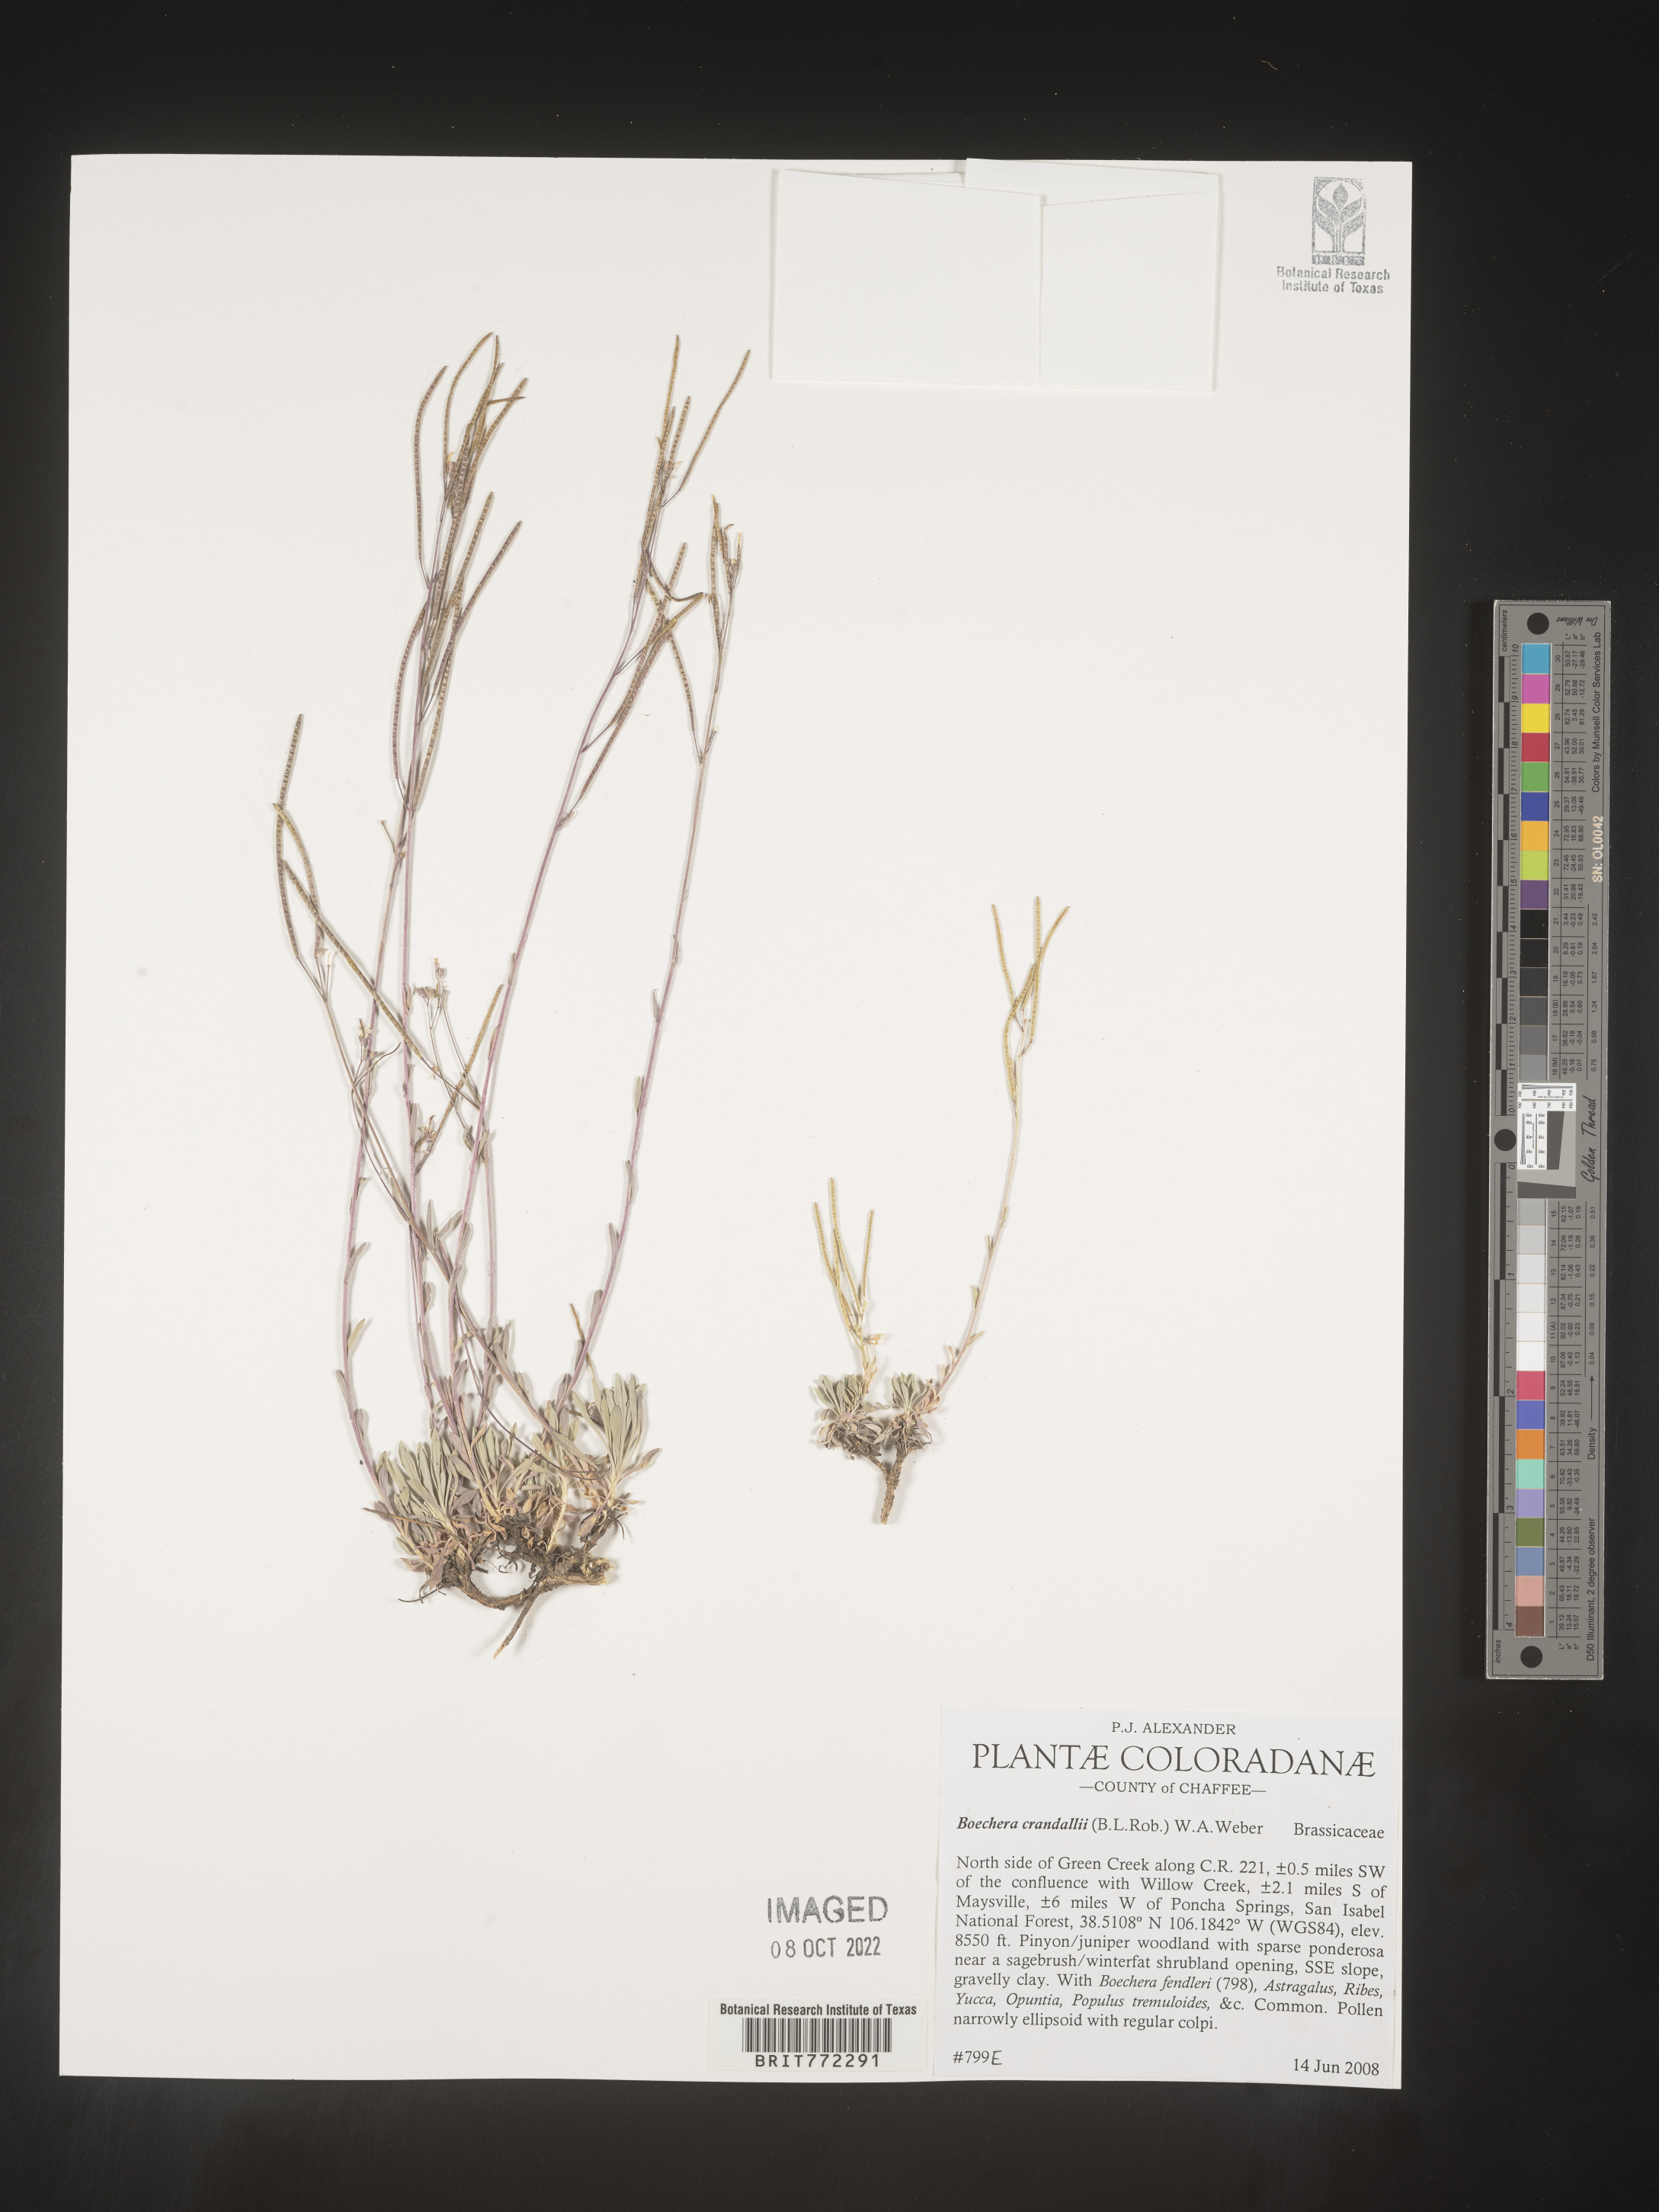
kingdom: Plantae
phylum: Tracheophyta
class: Magnoliopsida
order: Brassicales
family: Brassicaceae
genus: Boechera
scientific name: Boechera
